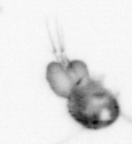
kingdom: Animalia
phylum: Arthropoda
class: Copepoda
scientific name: Copepoda
